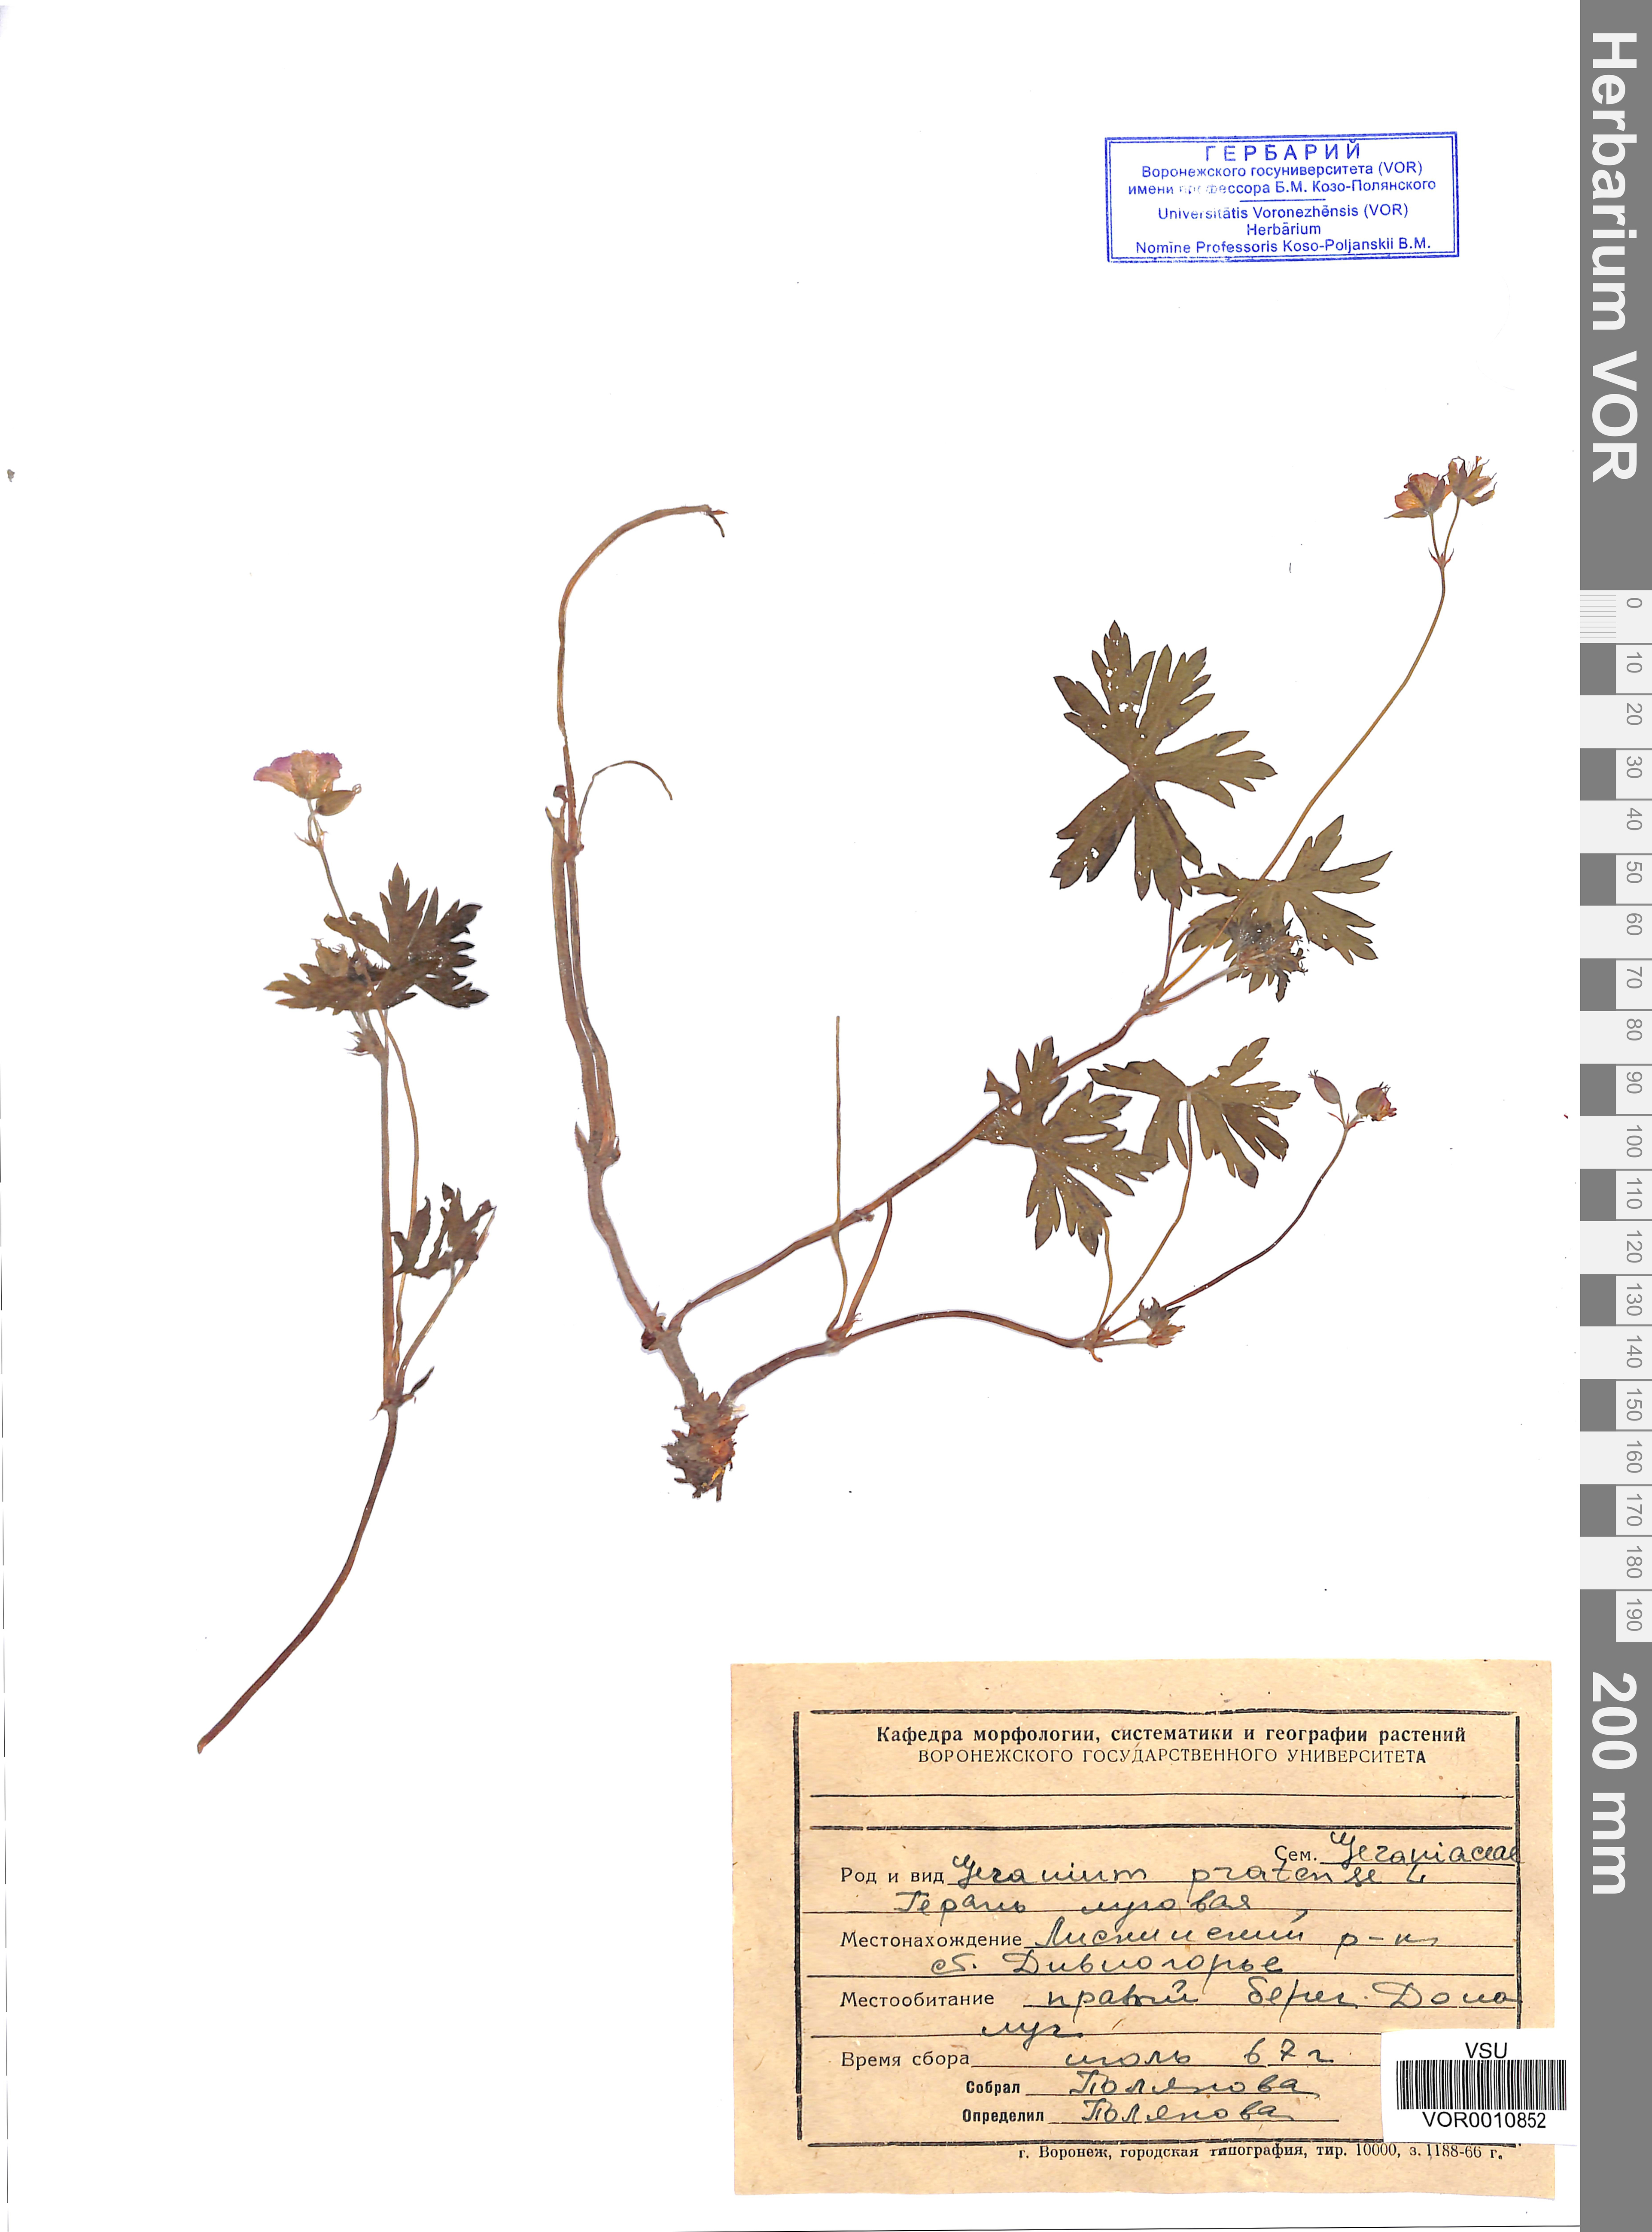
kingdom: Plantae
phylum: Tracheophyta
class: Magnoliopsida
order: Geraniales
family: Geraniaceae
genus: Geranium
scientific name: Geranium pratense
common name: Meadow crane's-bill
